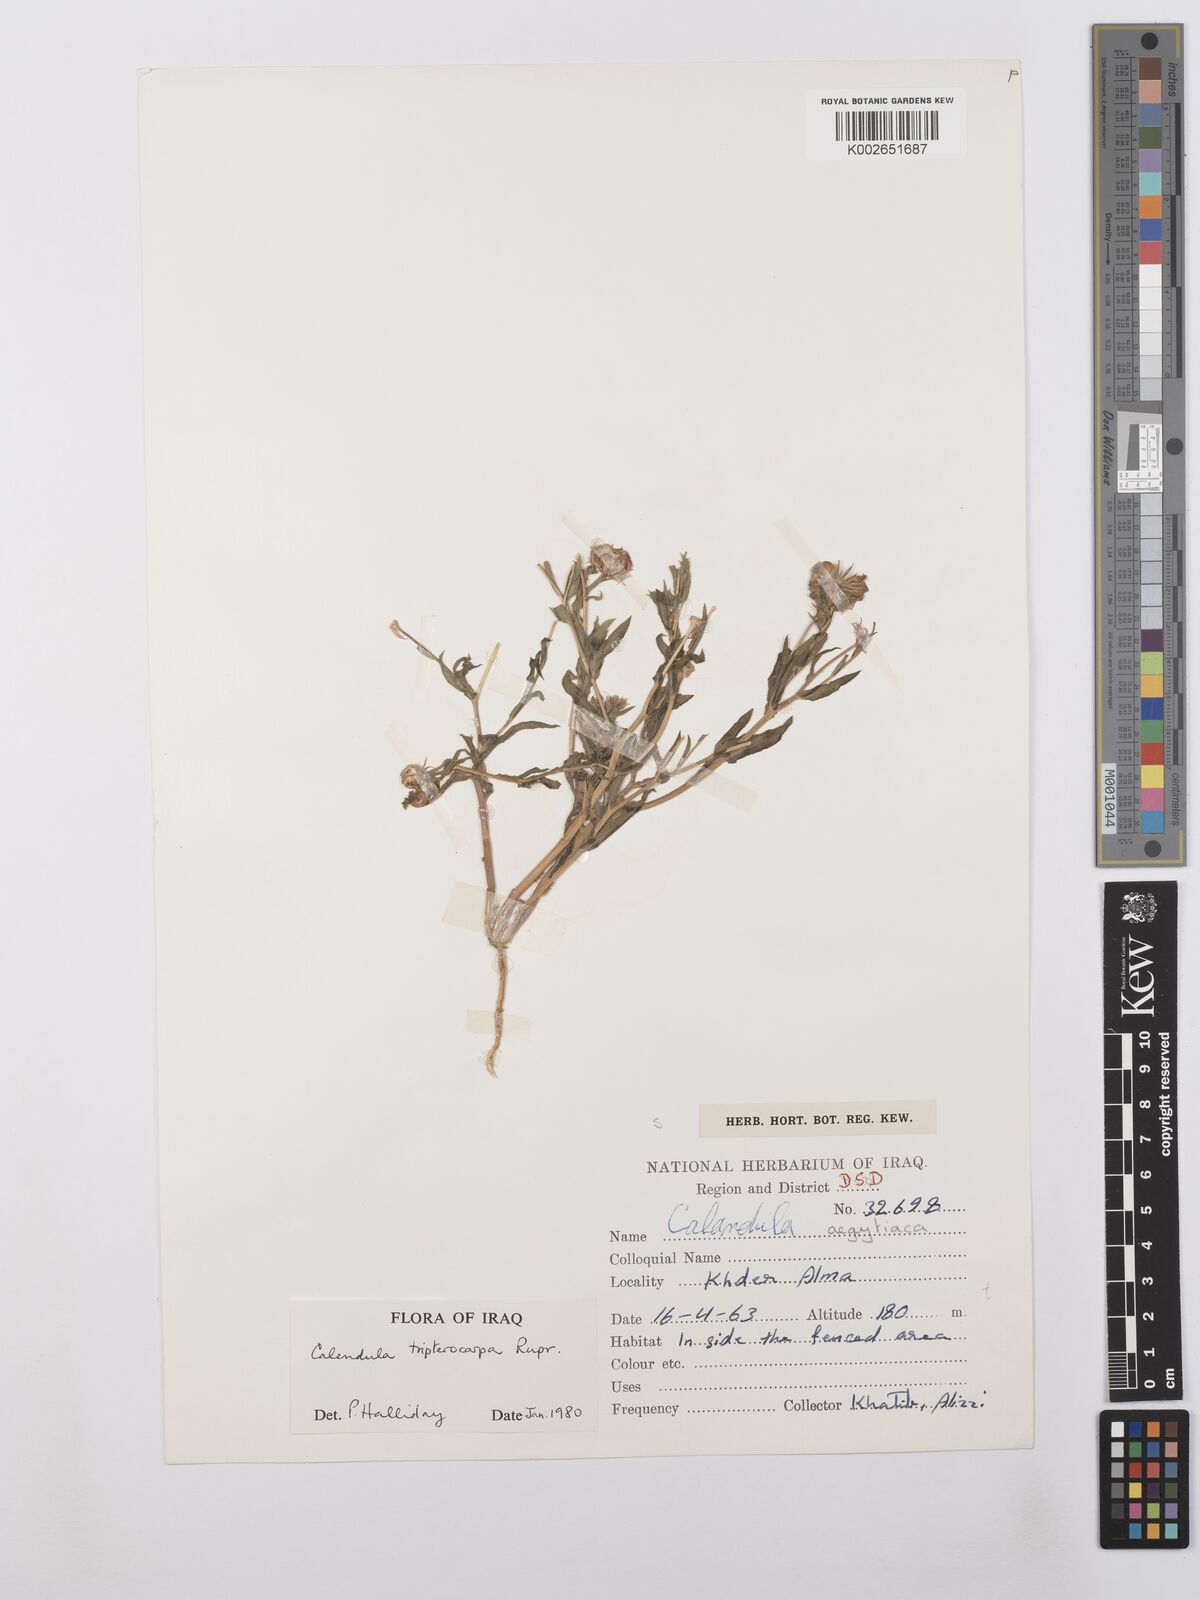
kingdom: Plantae
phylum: Tracheophyta
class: Magnoliopsida
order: Asterales
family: Asteraceae
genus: Calendula
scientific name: Calendula tripterocarpa
